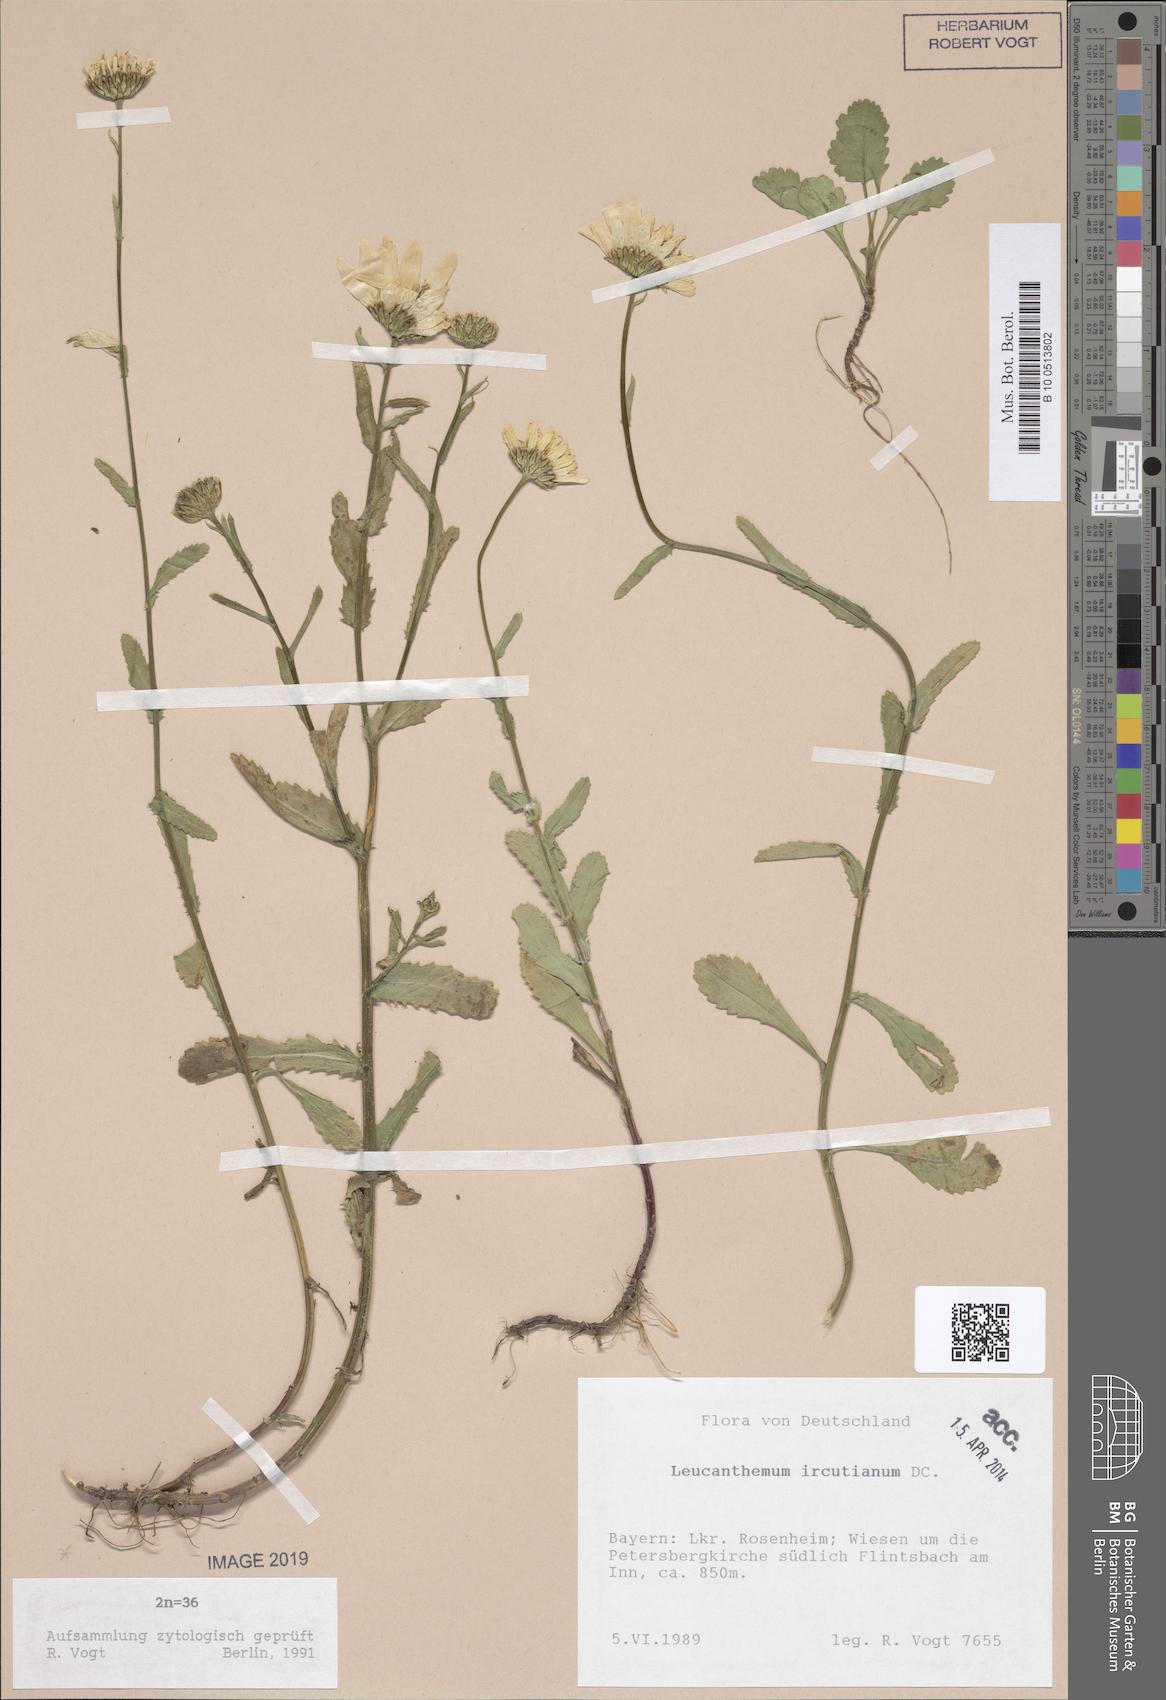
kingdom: Plantae
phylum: Tracheophyta
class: Magnoliopsida
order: Asterales
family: Asteraceae
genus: Leucanthemum
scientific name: Leucanthemum ircutianum
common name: Daisy
